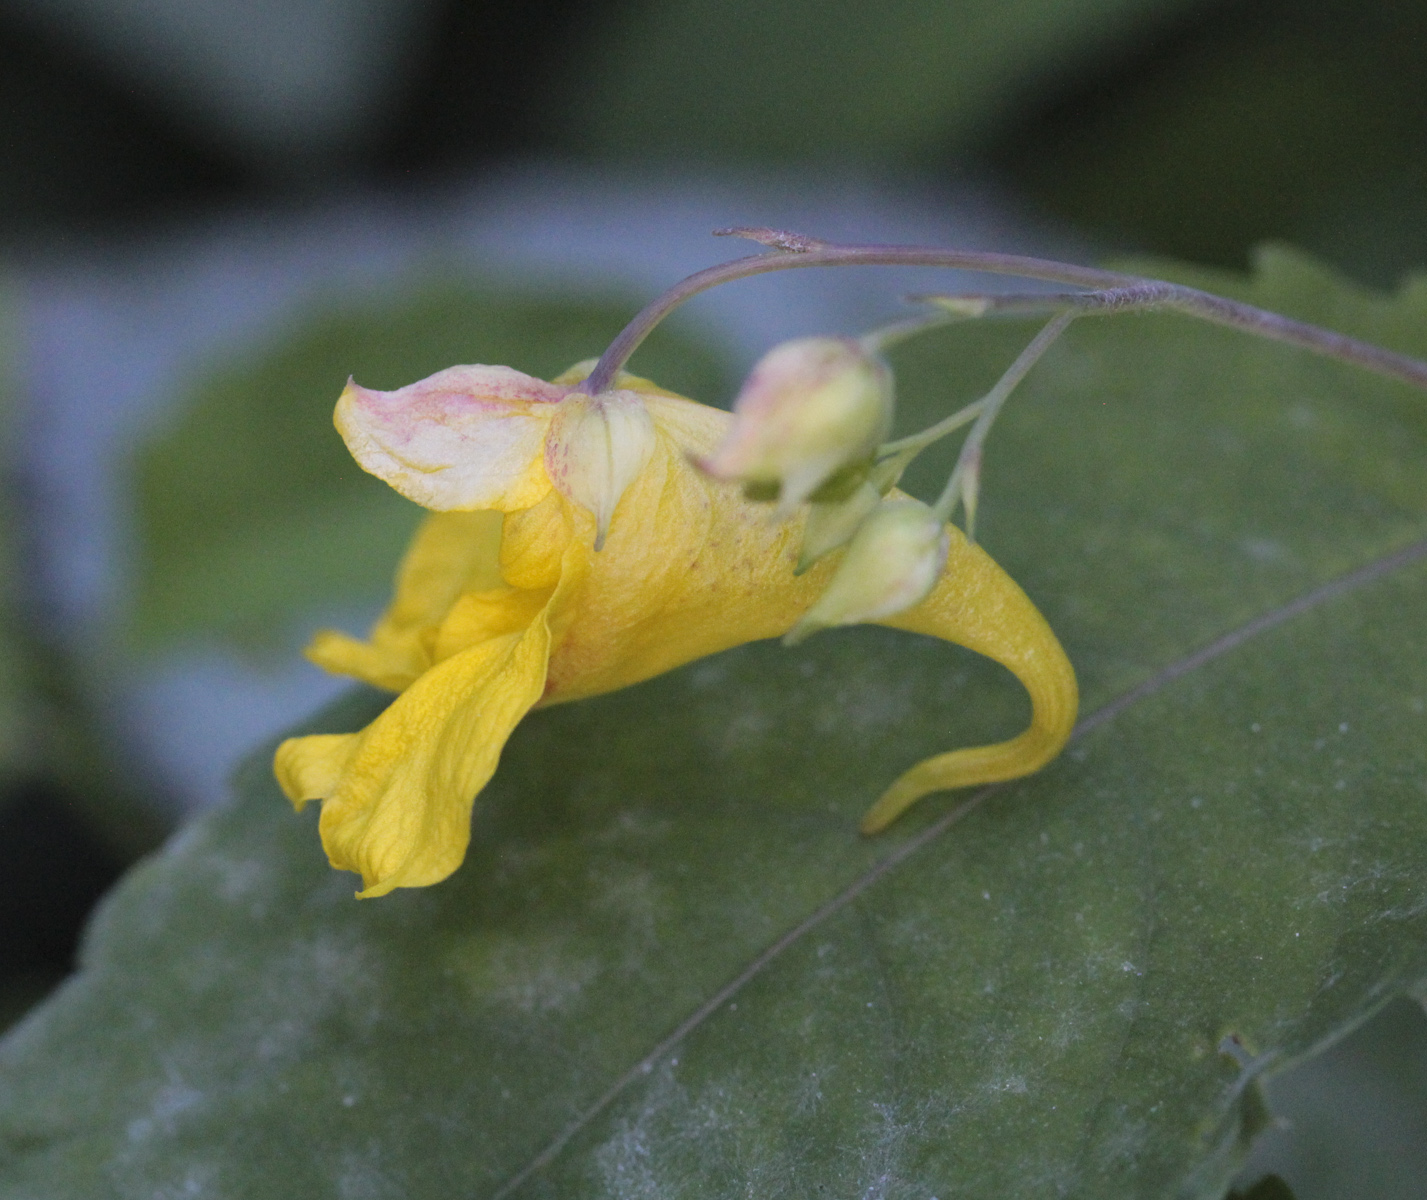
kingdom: Plantae
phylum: Tracheophyta
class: Magnoliopsida
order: Ericales
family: Balsaminaceae
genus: Impatiens
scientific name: Impatiens noli-tangere
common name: Touch-me-not balsam
